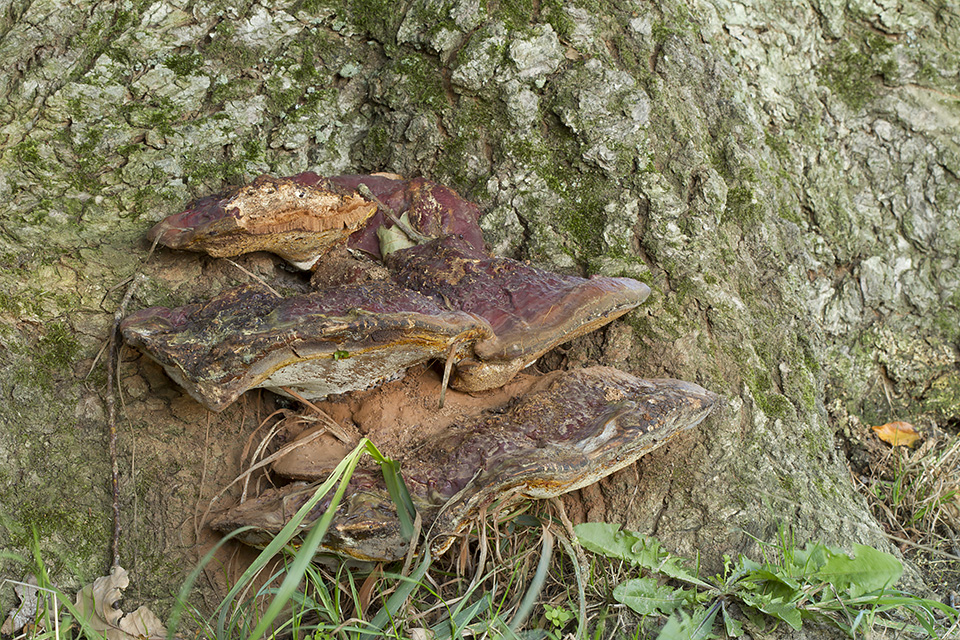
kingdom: Fungi
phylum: Basidiomycota
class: Agaricomycetes
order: Polyporales
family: Polyporaceae
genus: Ganoderma
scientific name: Ganoderma resinaceum
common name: gyldenbrun lakporesvamp
